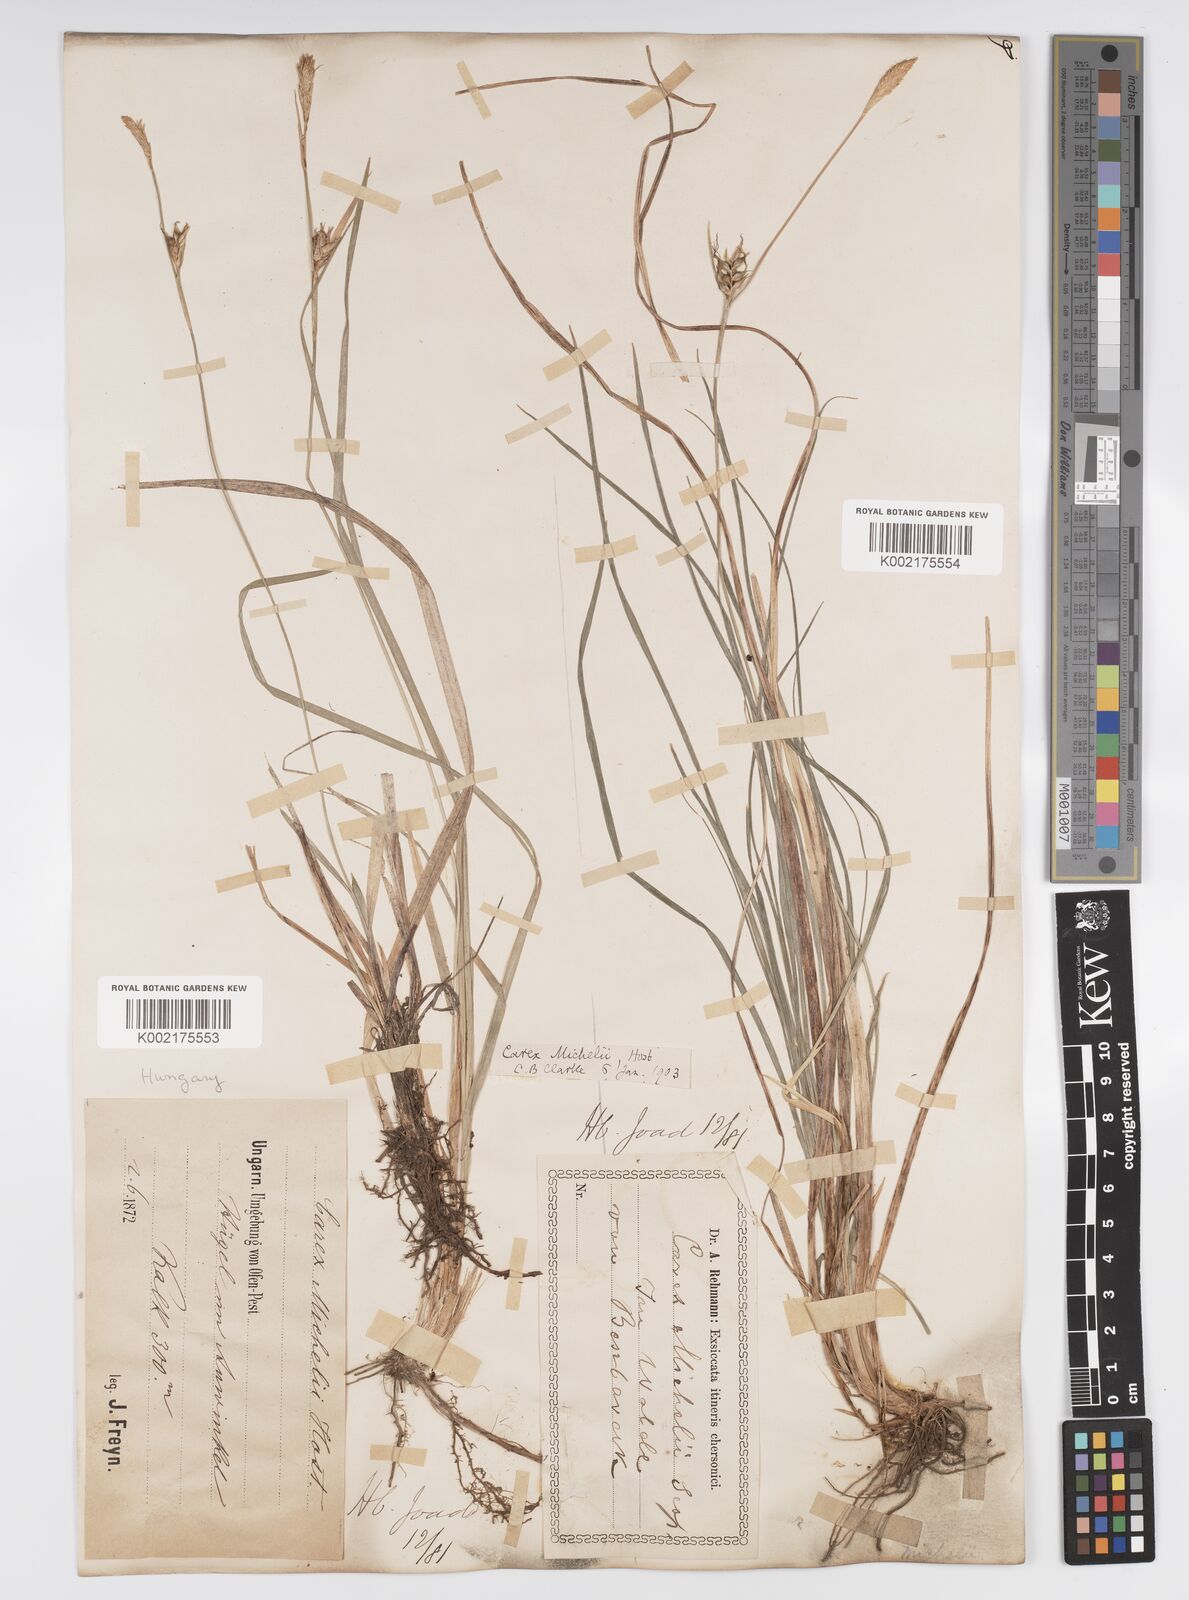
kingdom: Plantae
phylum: Tracheophyta
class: Liliopsida
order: Poales
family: Cyperaceae
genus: Carex
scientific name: Carex michelii
